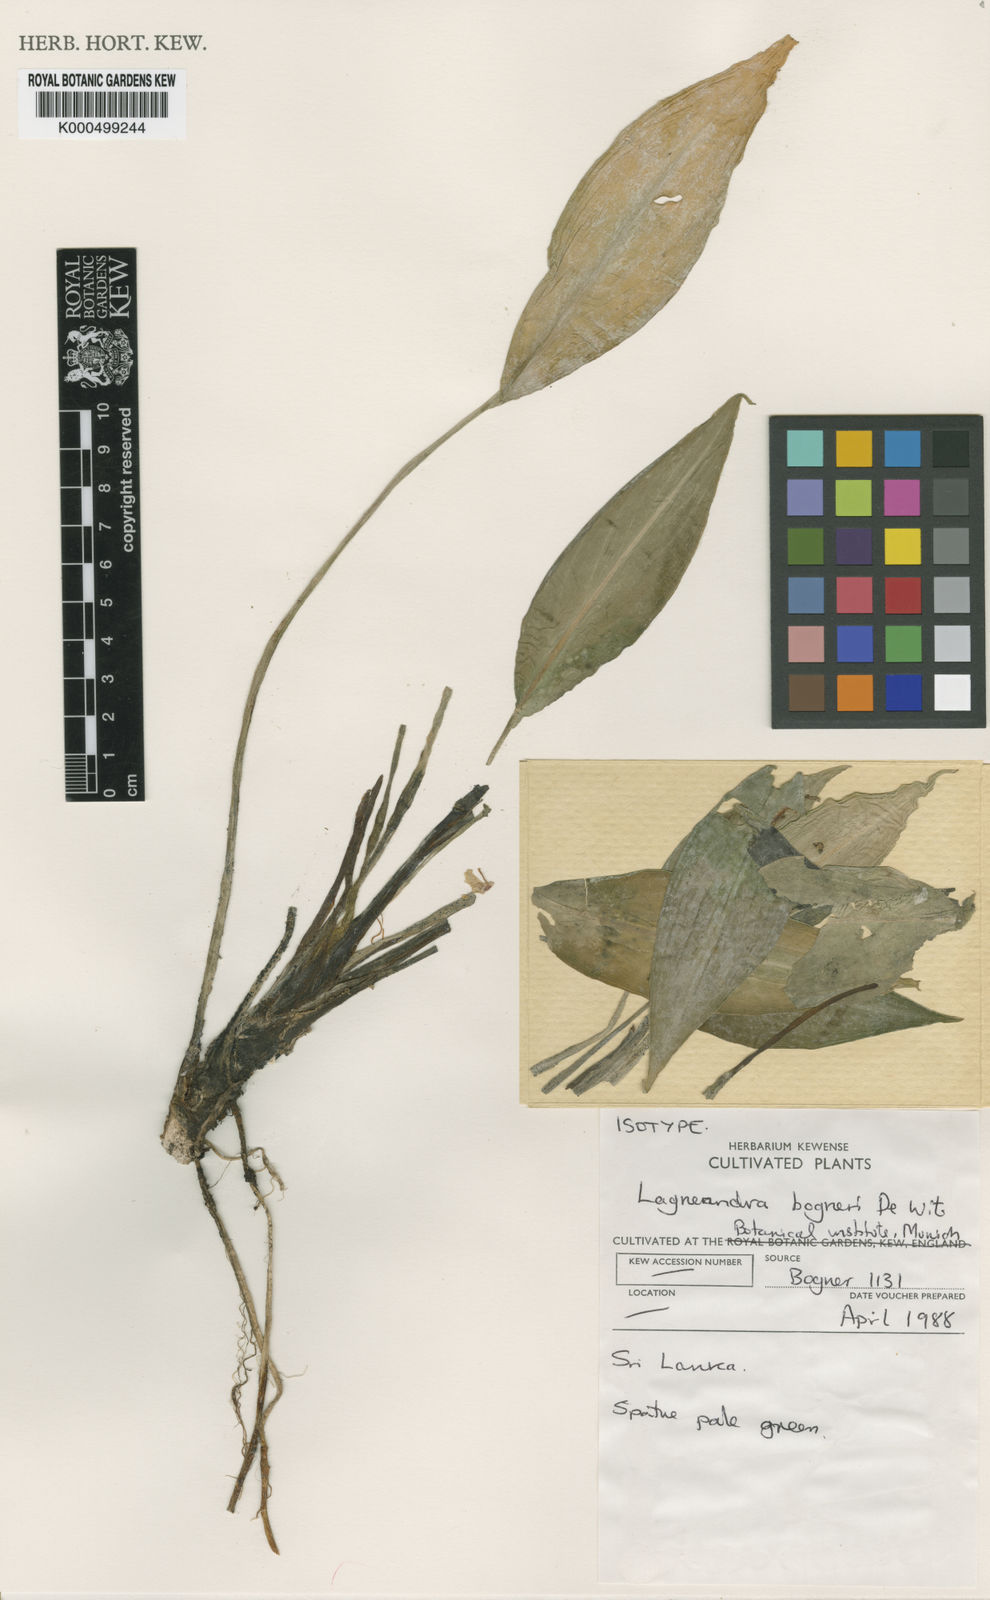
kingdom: Plantae
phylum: Tracheophyta
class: Liliopsida
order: Alismatales
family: Araceae
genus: Lagenandra
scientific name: Lagenandra bogneri
